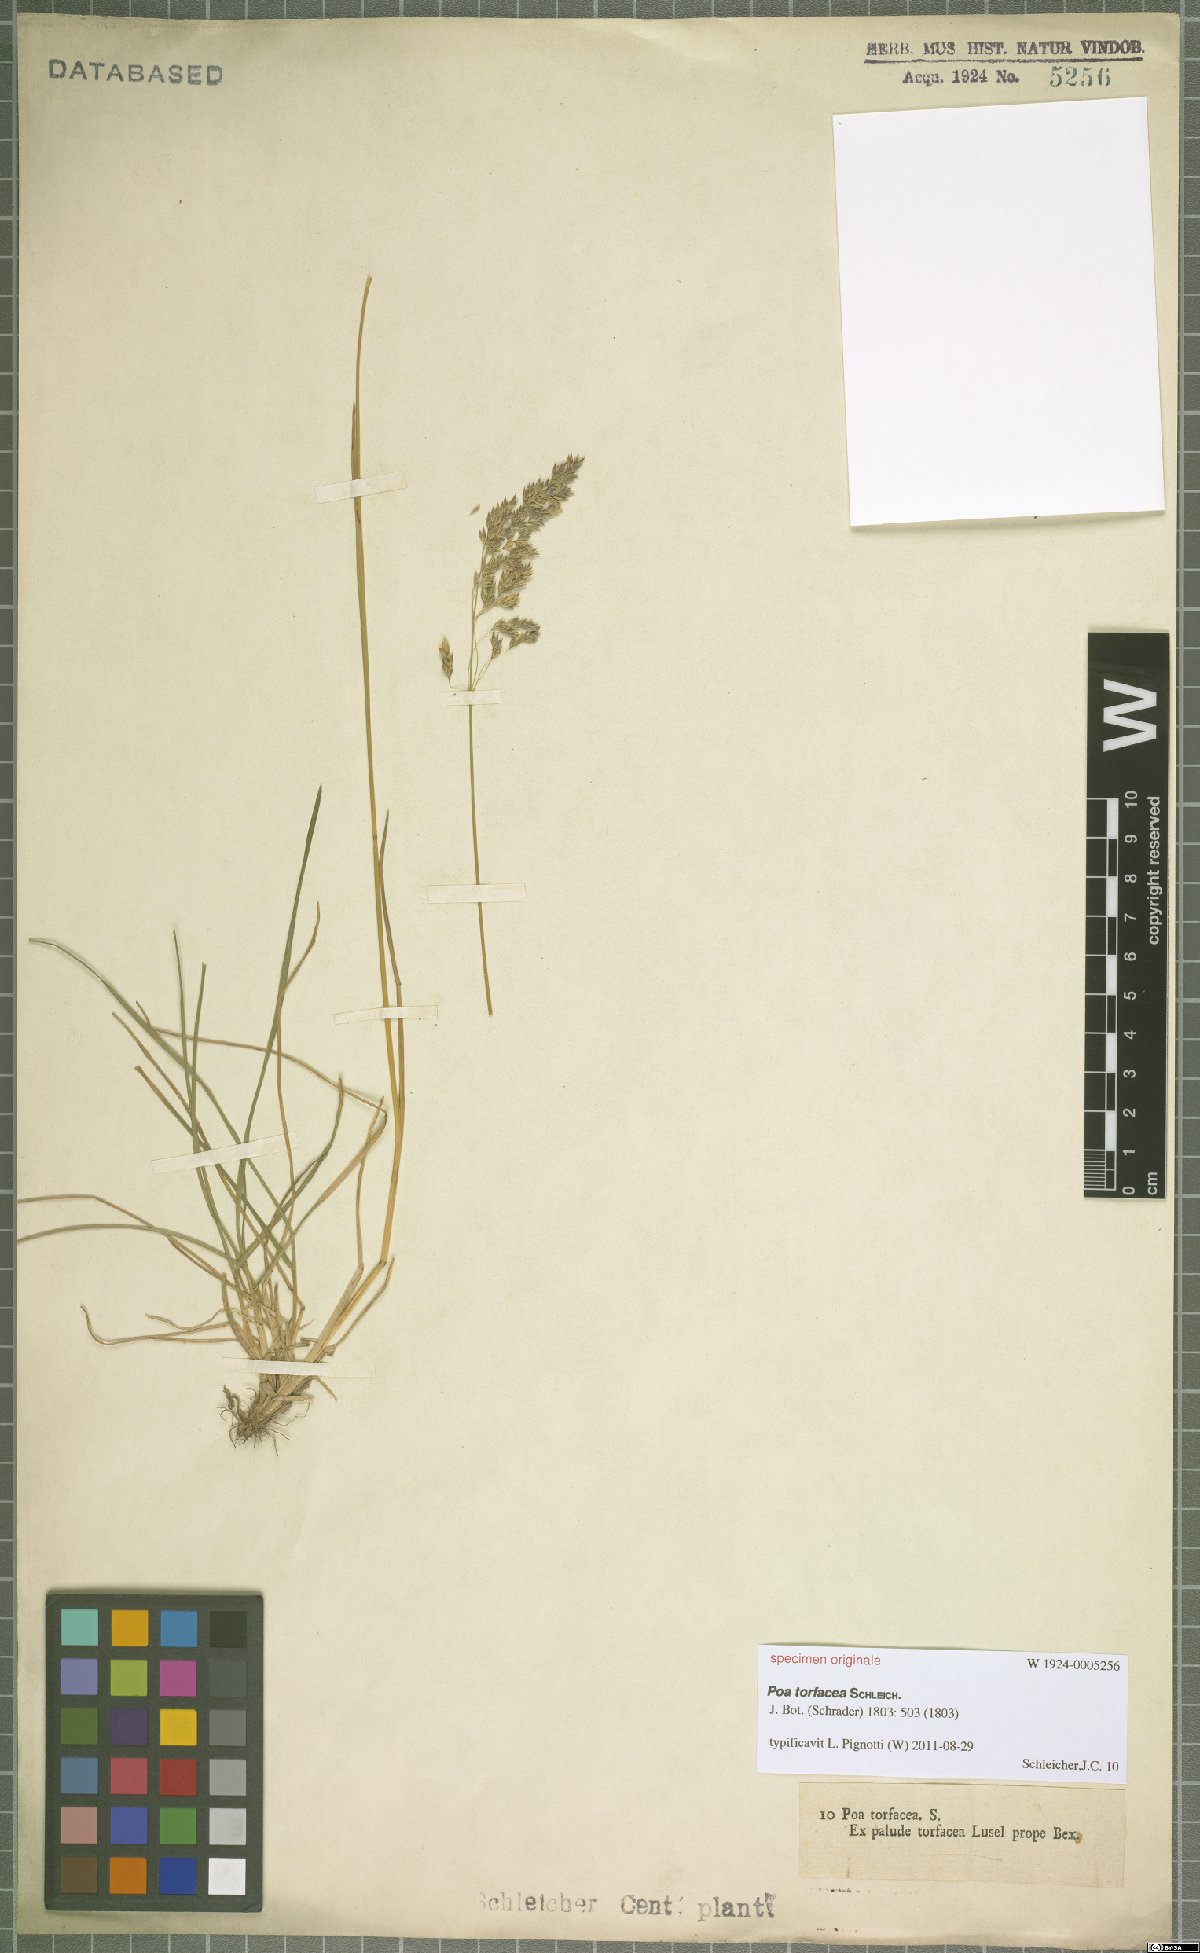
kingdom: Plantae
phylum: Tracheophyta
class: Liliopsida
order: Poales
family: Poaceae
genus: Poa
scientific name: Poa
